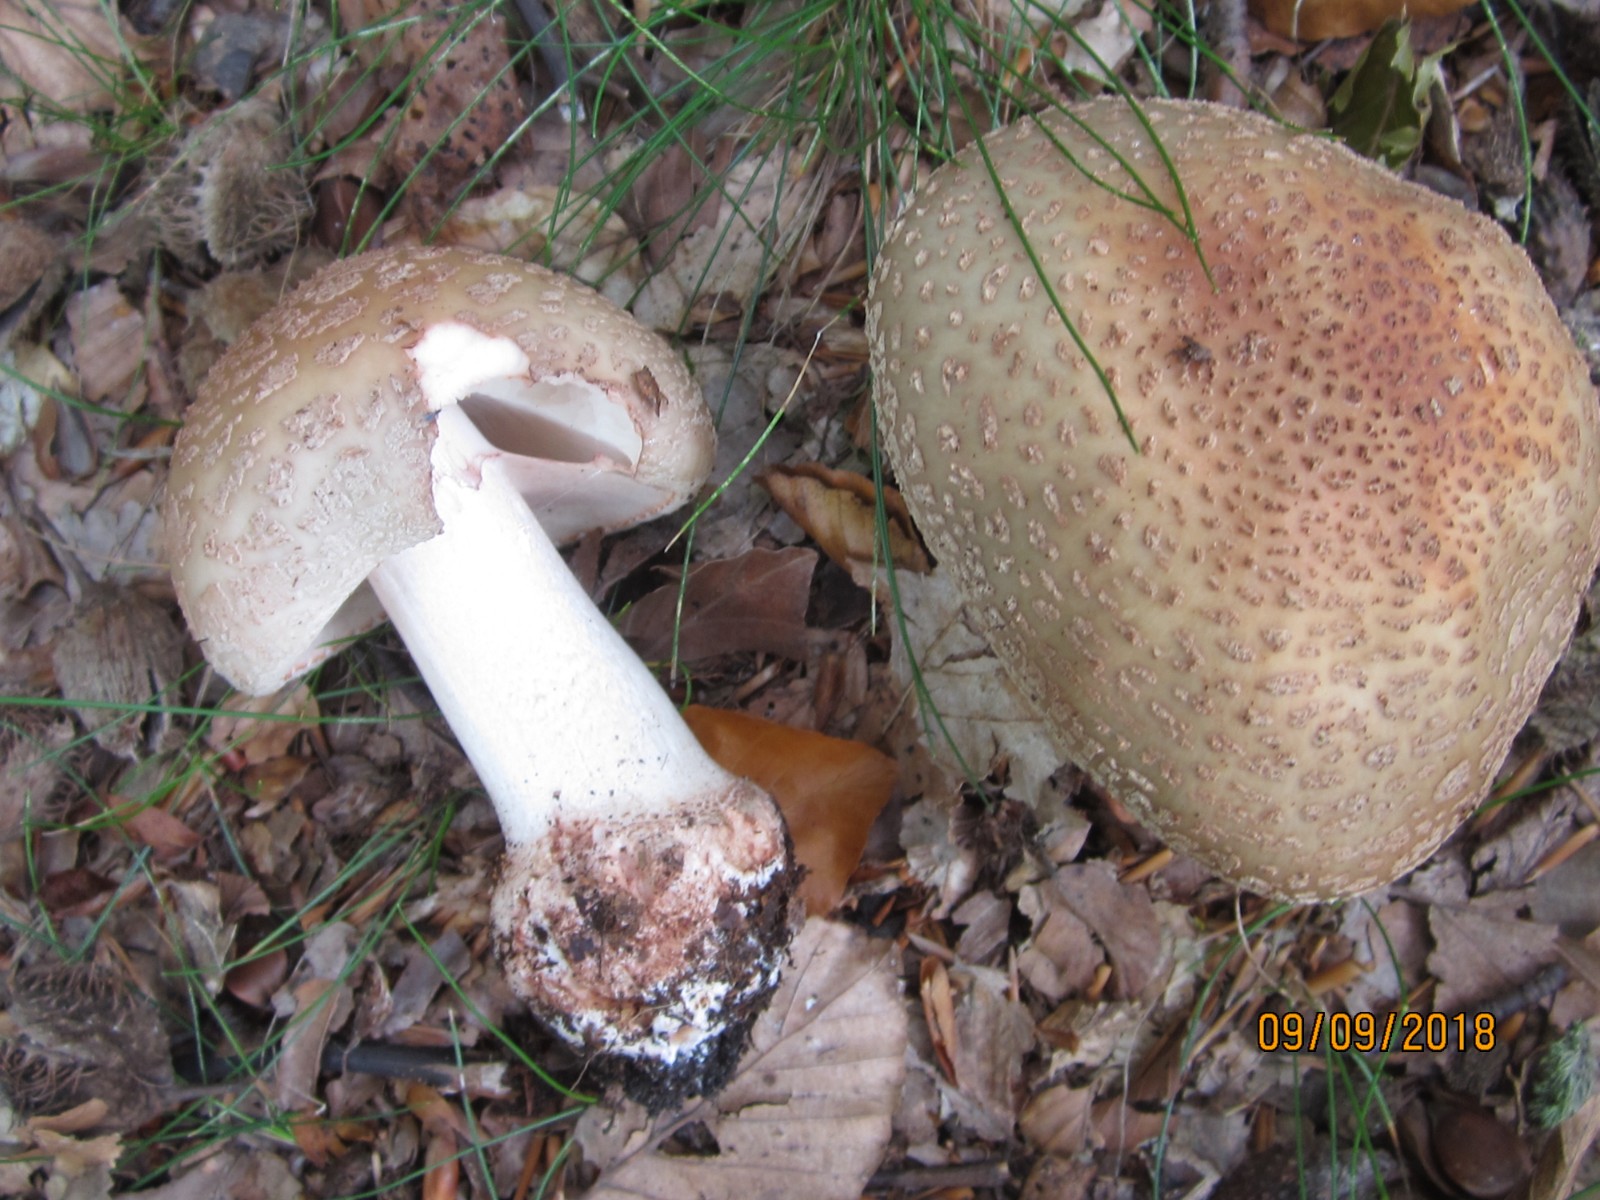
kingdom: Fungi
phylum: Basidiomycota
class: Agaricomycetes
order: Agaricales
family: Amanitaceae
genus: Amanita
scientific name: Amanita rubescens
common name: rødmende fluesvamp
